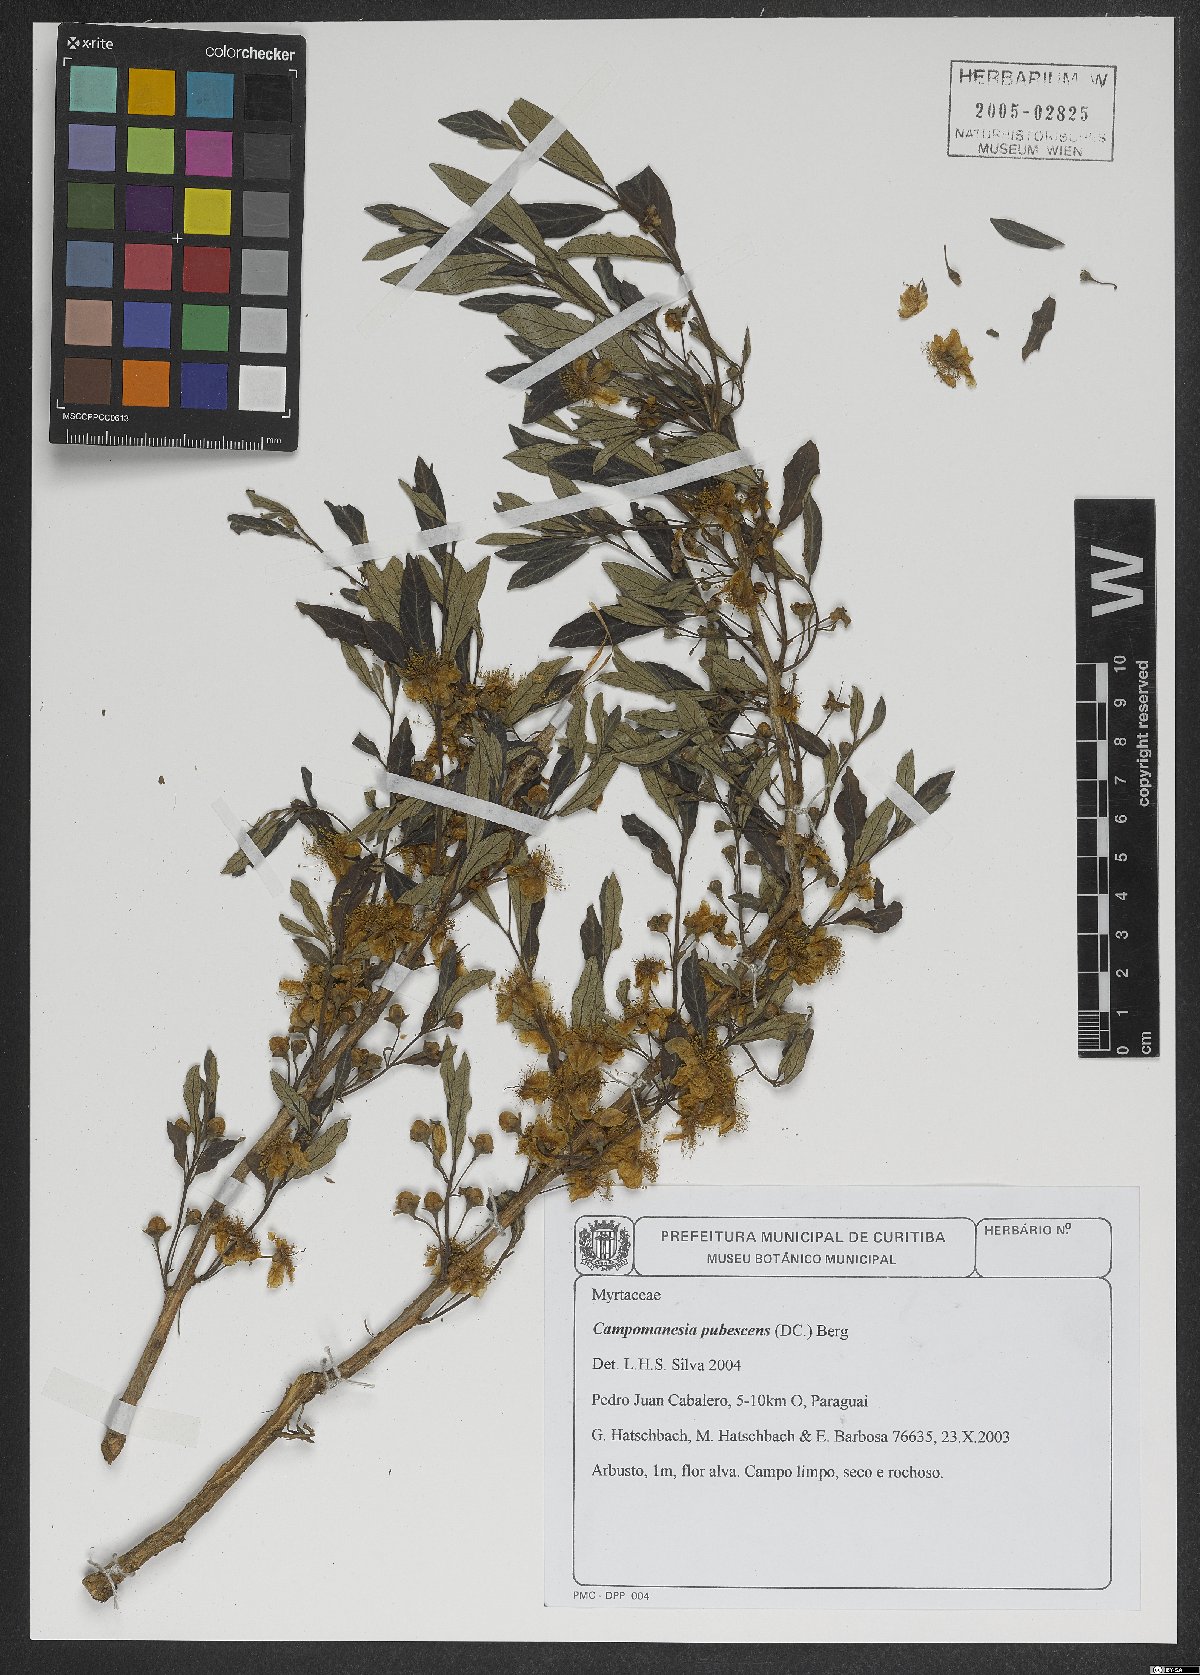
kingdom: Plantae
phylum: Tracheophyta
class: Magnoliopsida
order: Myrtales
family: Myrtaceae
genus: Campomanesia
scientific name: Campomanesia pubescens
